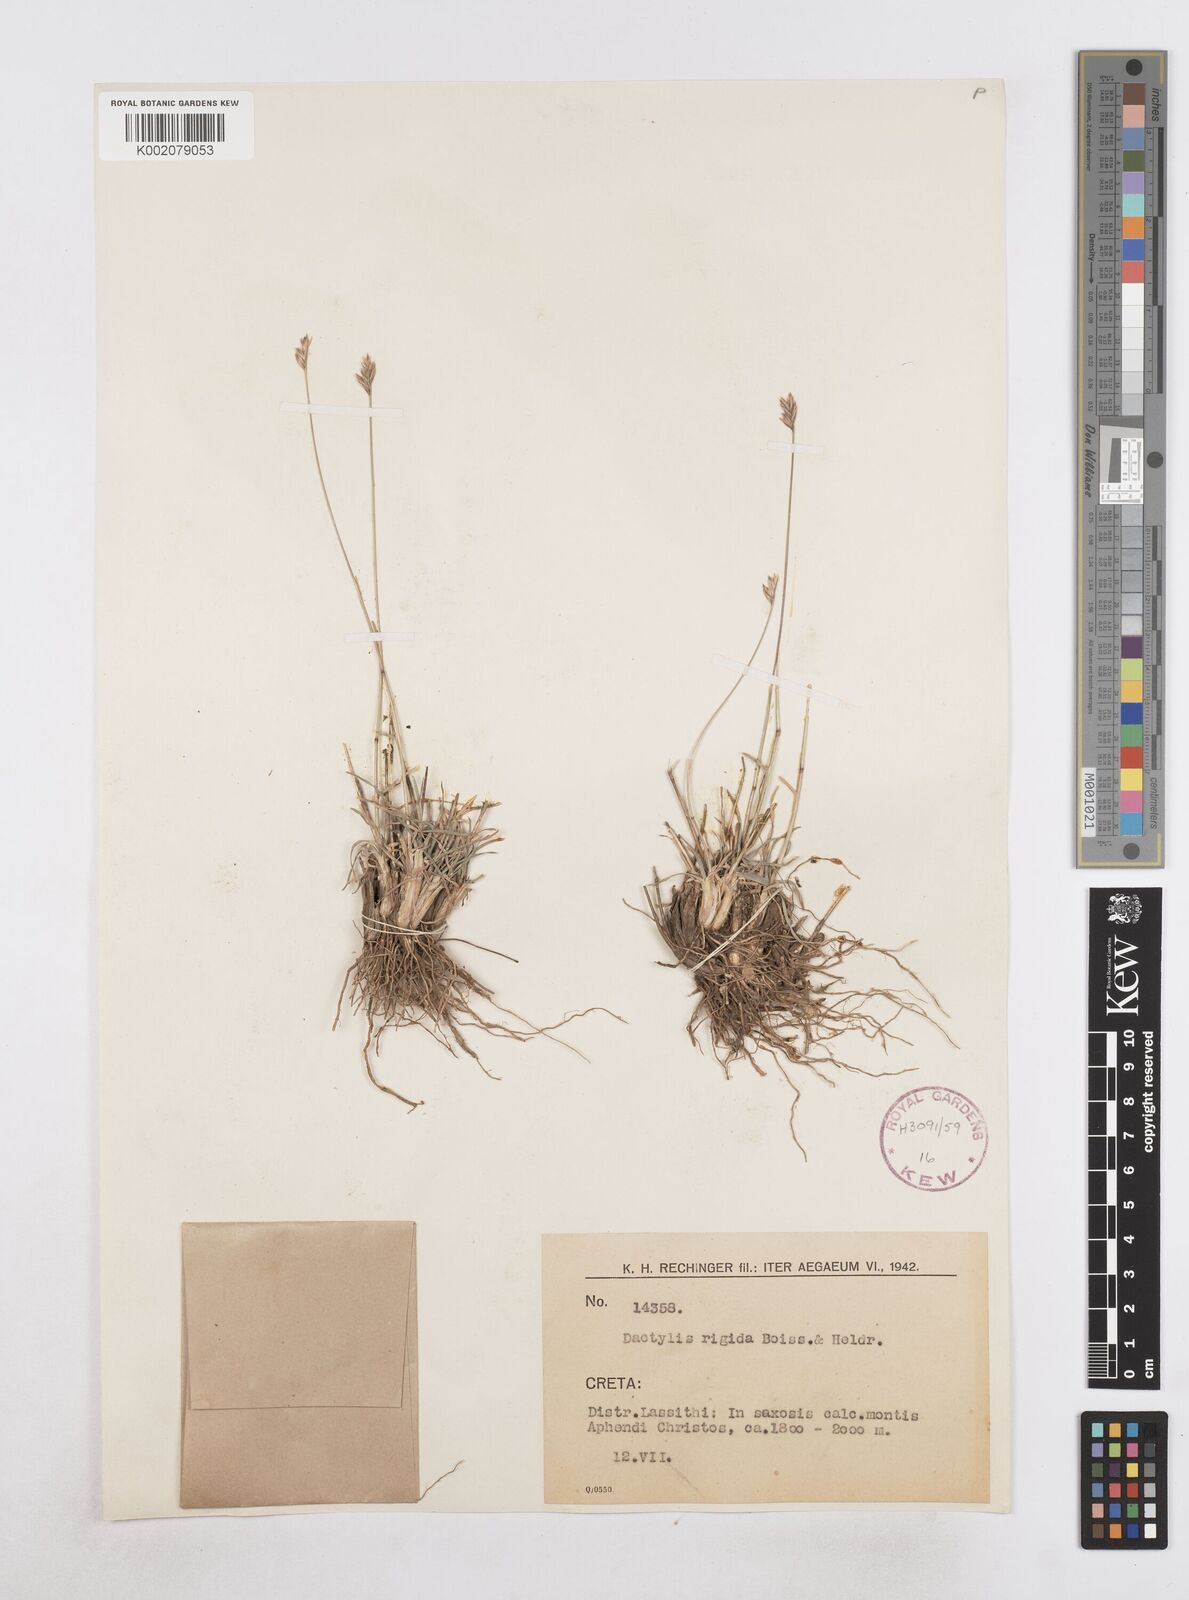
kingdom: Plantae
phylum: Tracheophyta
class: Liliopsida
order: Poales
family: Poaceae
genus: Dactylis
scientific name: Dactylis glomerata
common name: Orchardgrass
